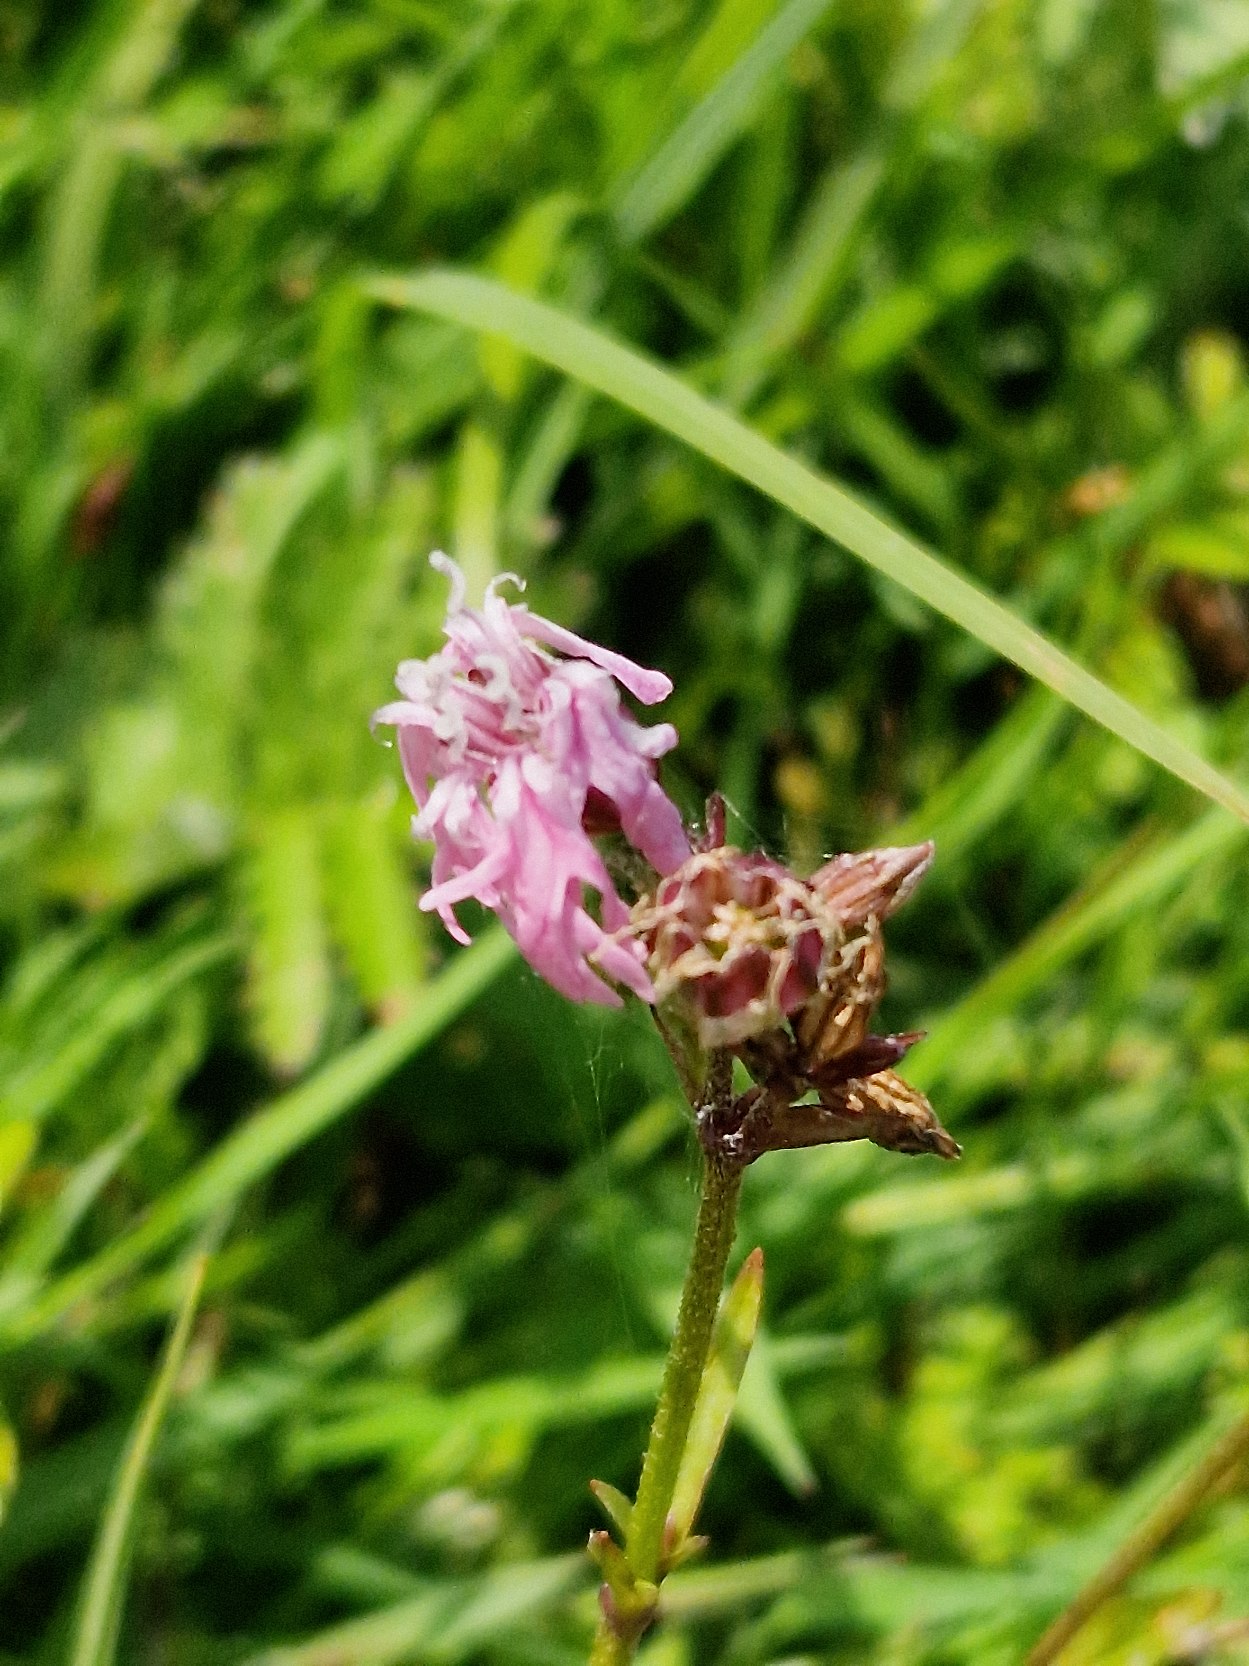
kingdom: Plantae
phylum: Tracheophyta
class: Magnoliopsida
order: Caryophyllales
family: Caryophyllaceae
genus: Silene
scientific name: Silene flos-cuculi
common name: Trævlekrone
